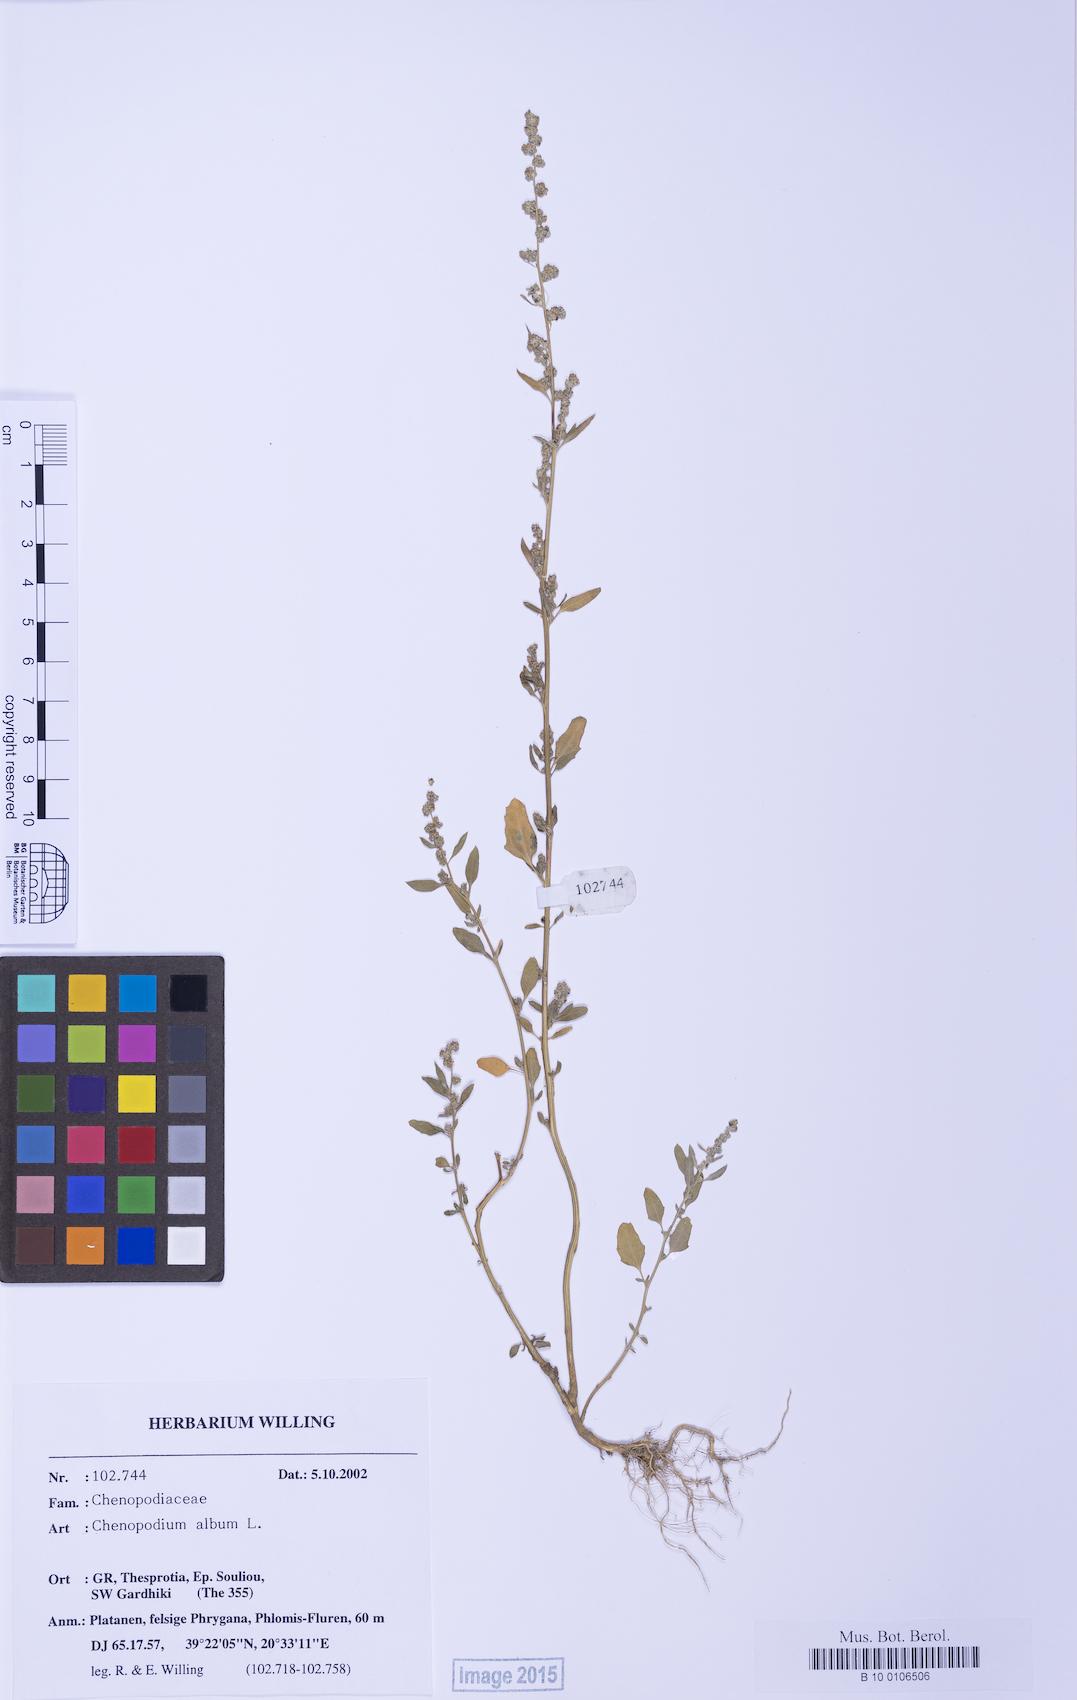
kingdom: Plantae
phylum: Tracheophyta
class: Magnoliopsida
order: Caryophyllales
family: Amaranthaceae
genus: Chenopodium
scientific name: Chenopodium betaceum
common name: Striped goosefoot
